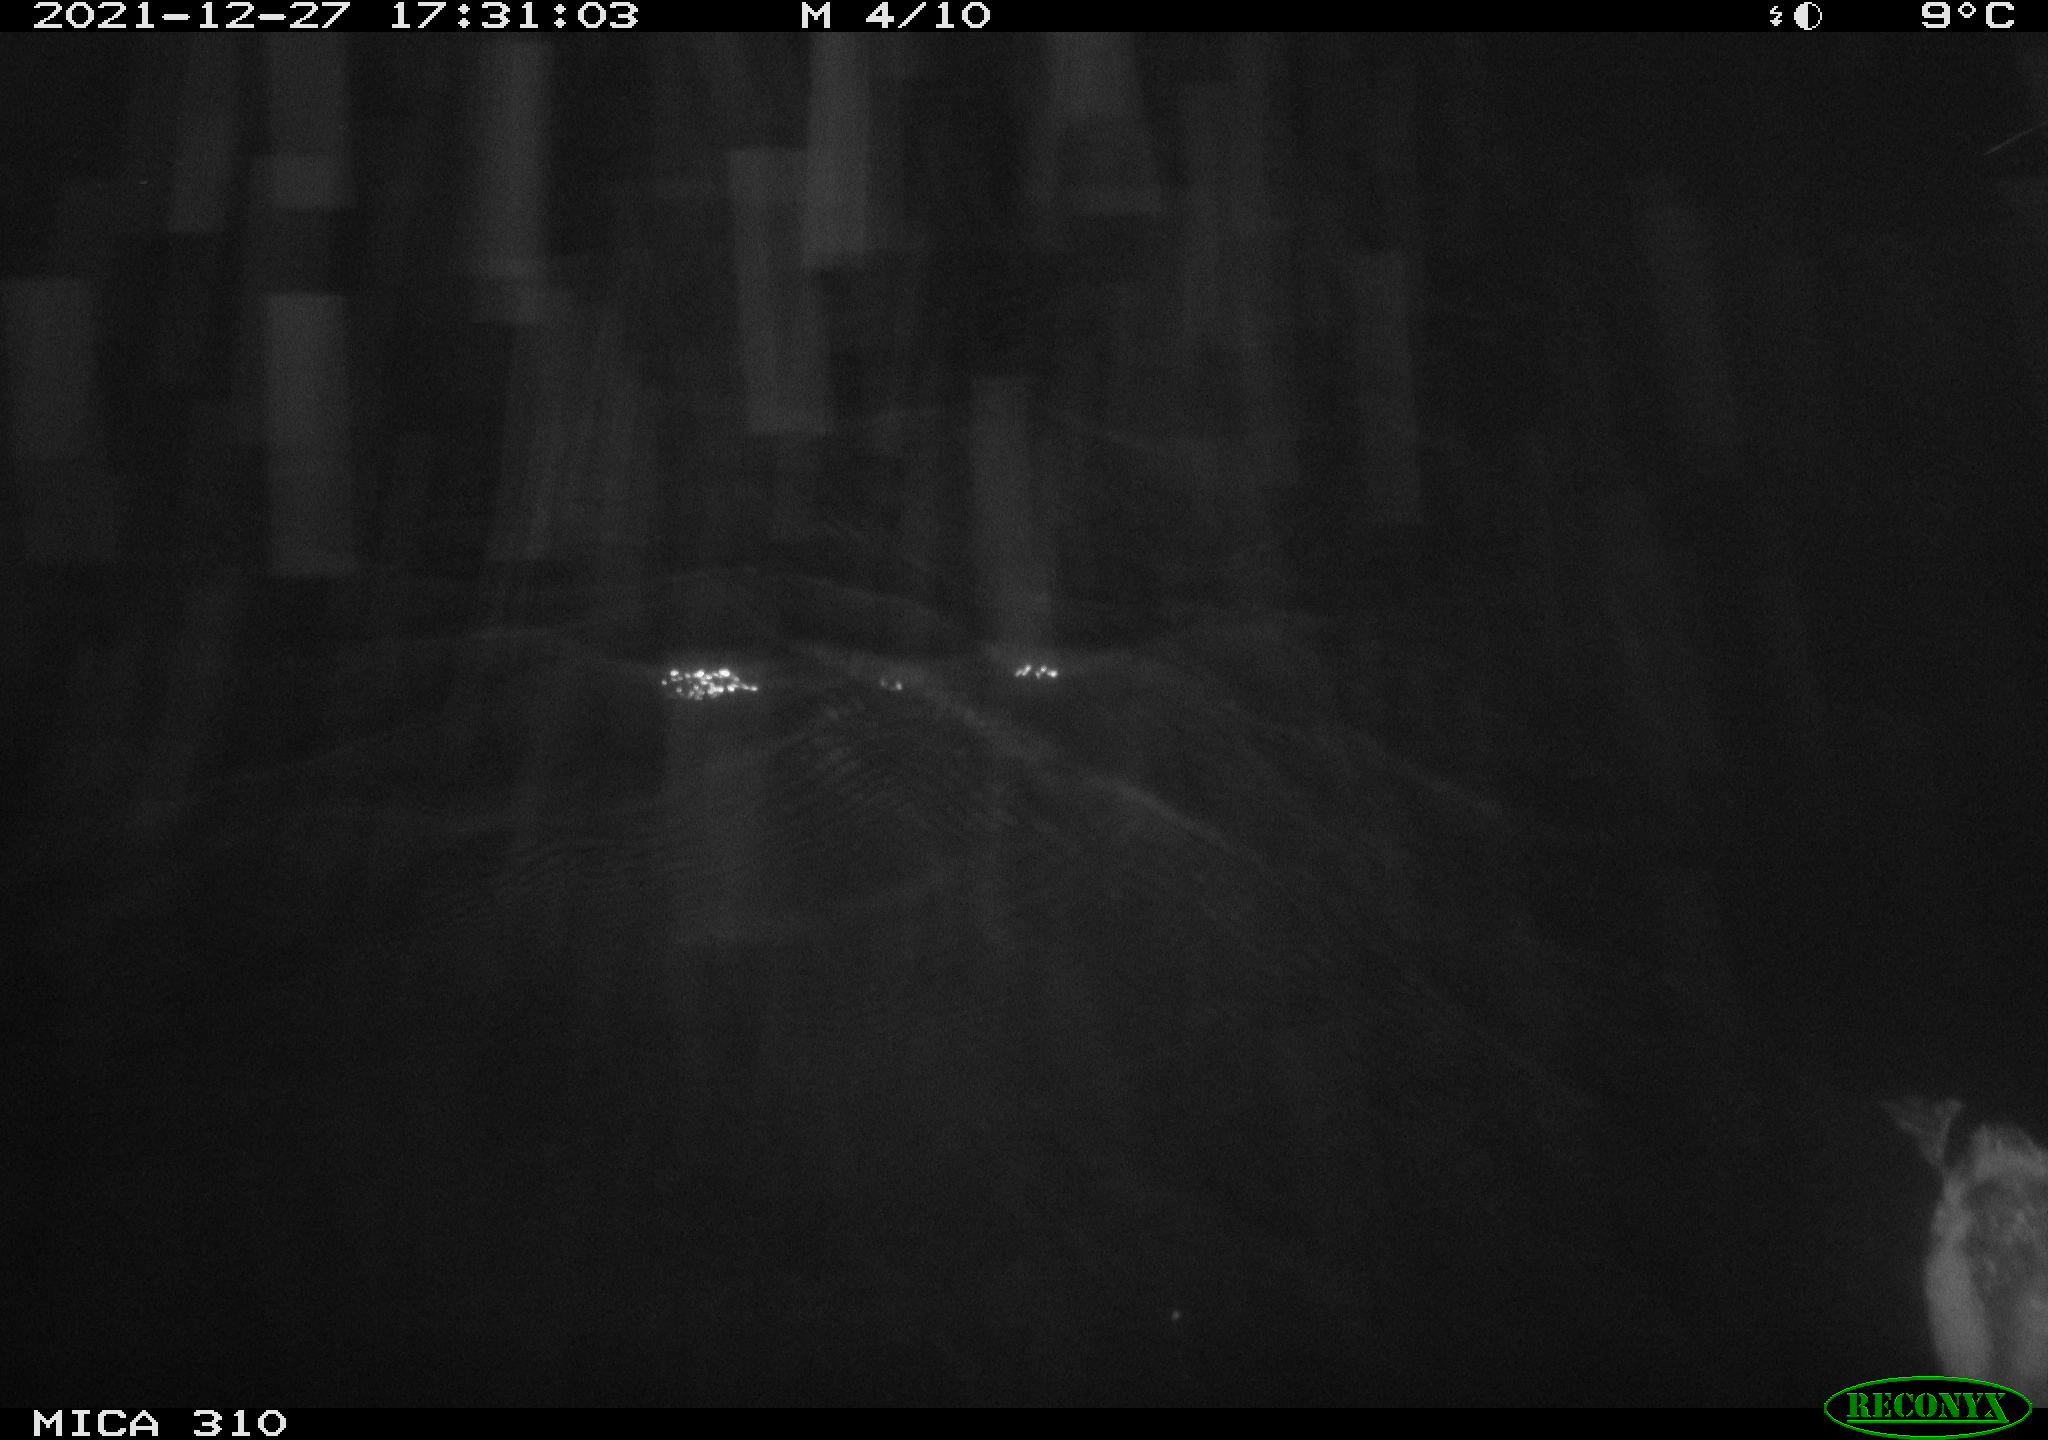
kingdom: Animalia
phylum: Chordata
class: Aves
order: Gruiformes
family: Rallidae
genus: Fulica
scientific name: Fulica atra
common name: Eurasian coot
